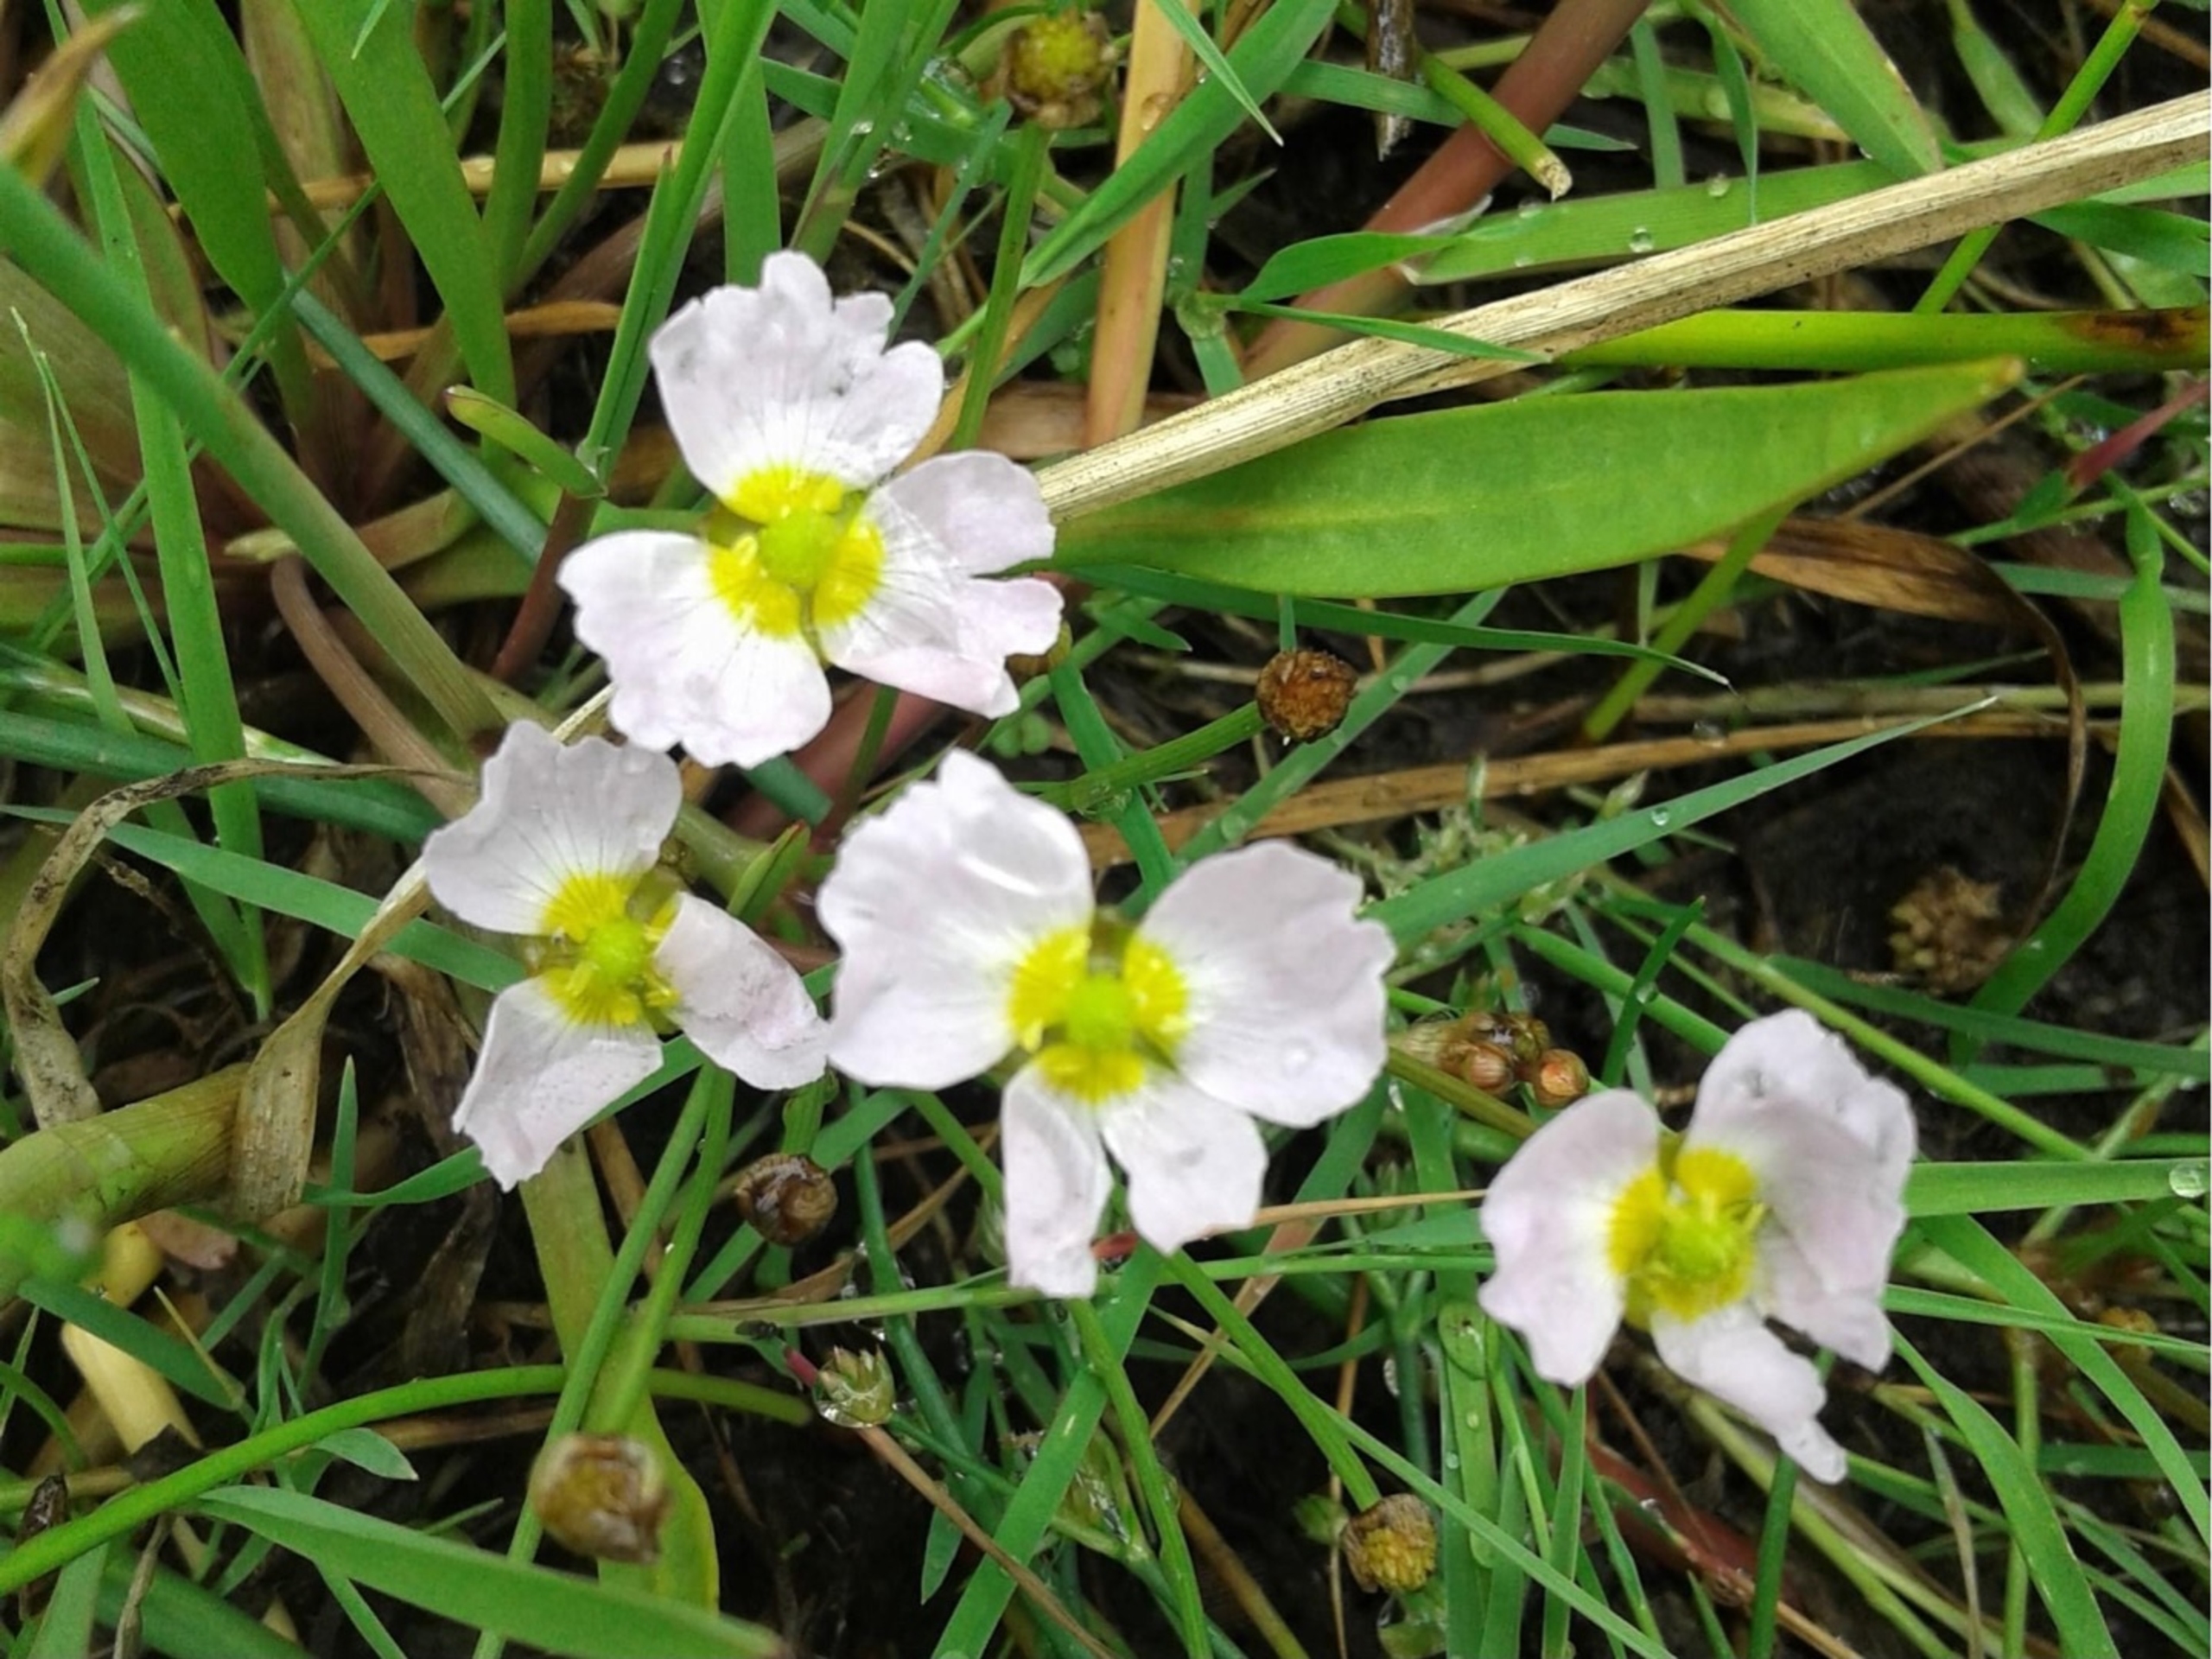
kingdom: Plantae
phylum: Tracheophyta
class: Liliopsida
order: Alismatales
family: Alismataceae
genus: Baldellia
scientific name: Baldellia ranunculoides
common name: Søpryd
